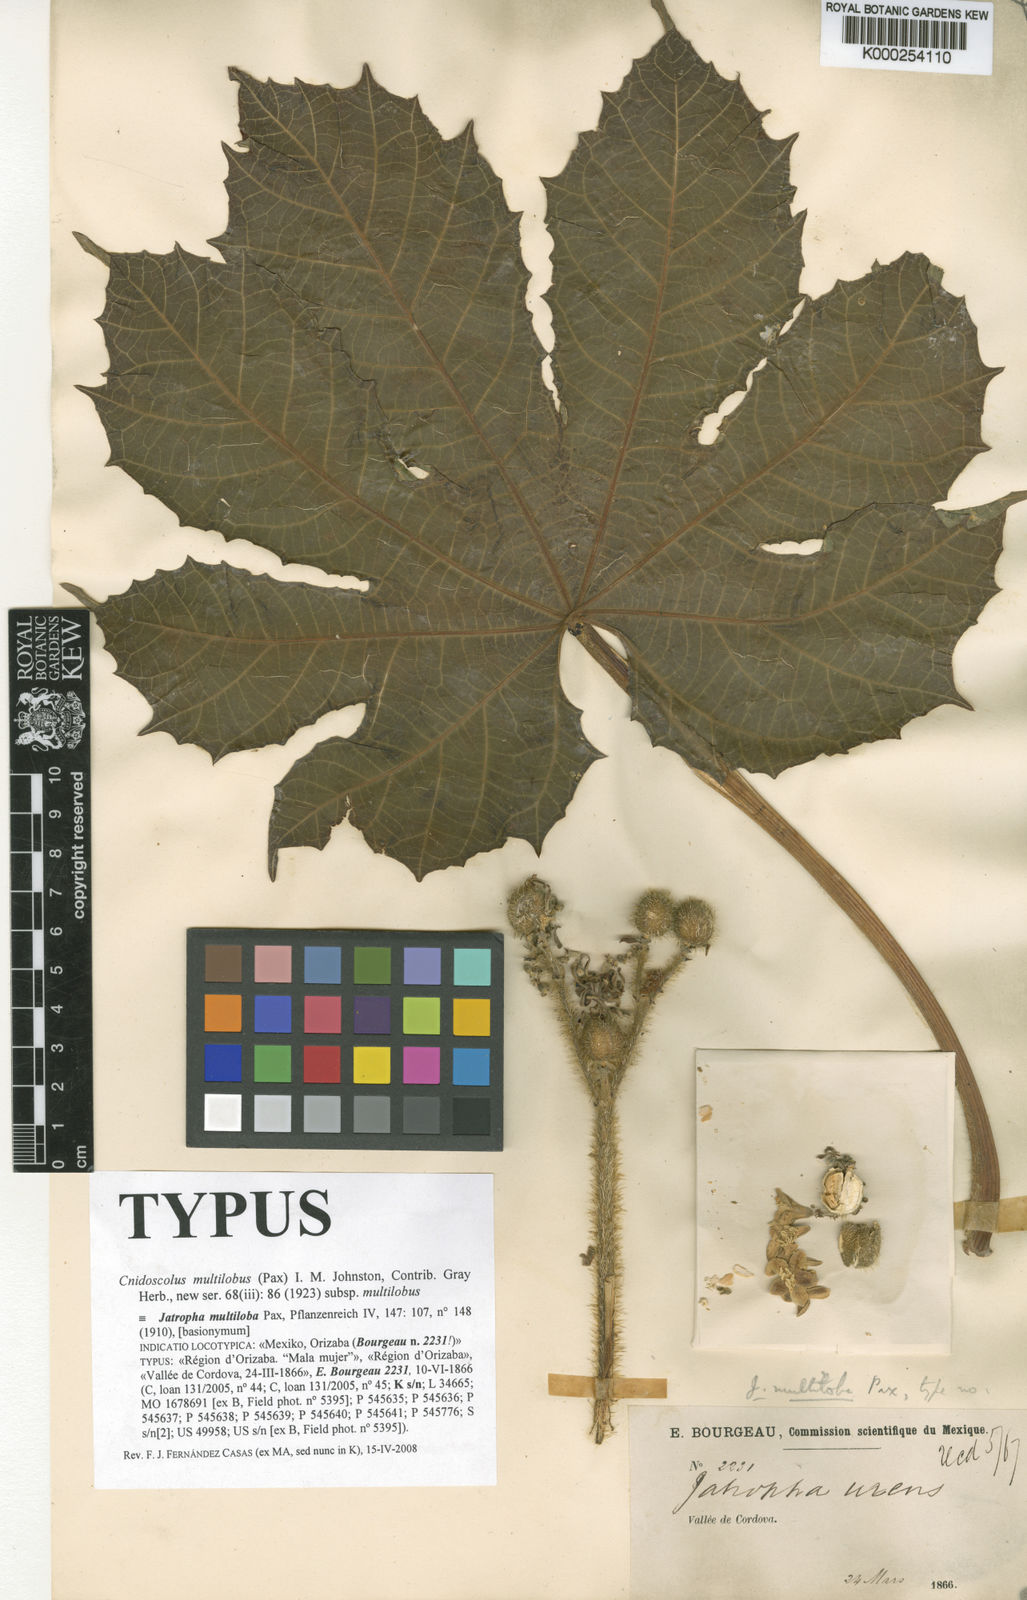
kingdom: Plantae
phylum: Tracheophyta
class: Magnoliopsida
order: Malpighiales
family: Euphorbiaceae
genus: Cnidoscolus
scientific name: Cnidoscolus multilobus
